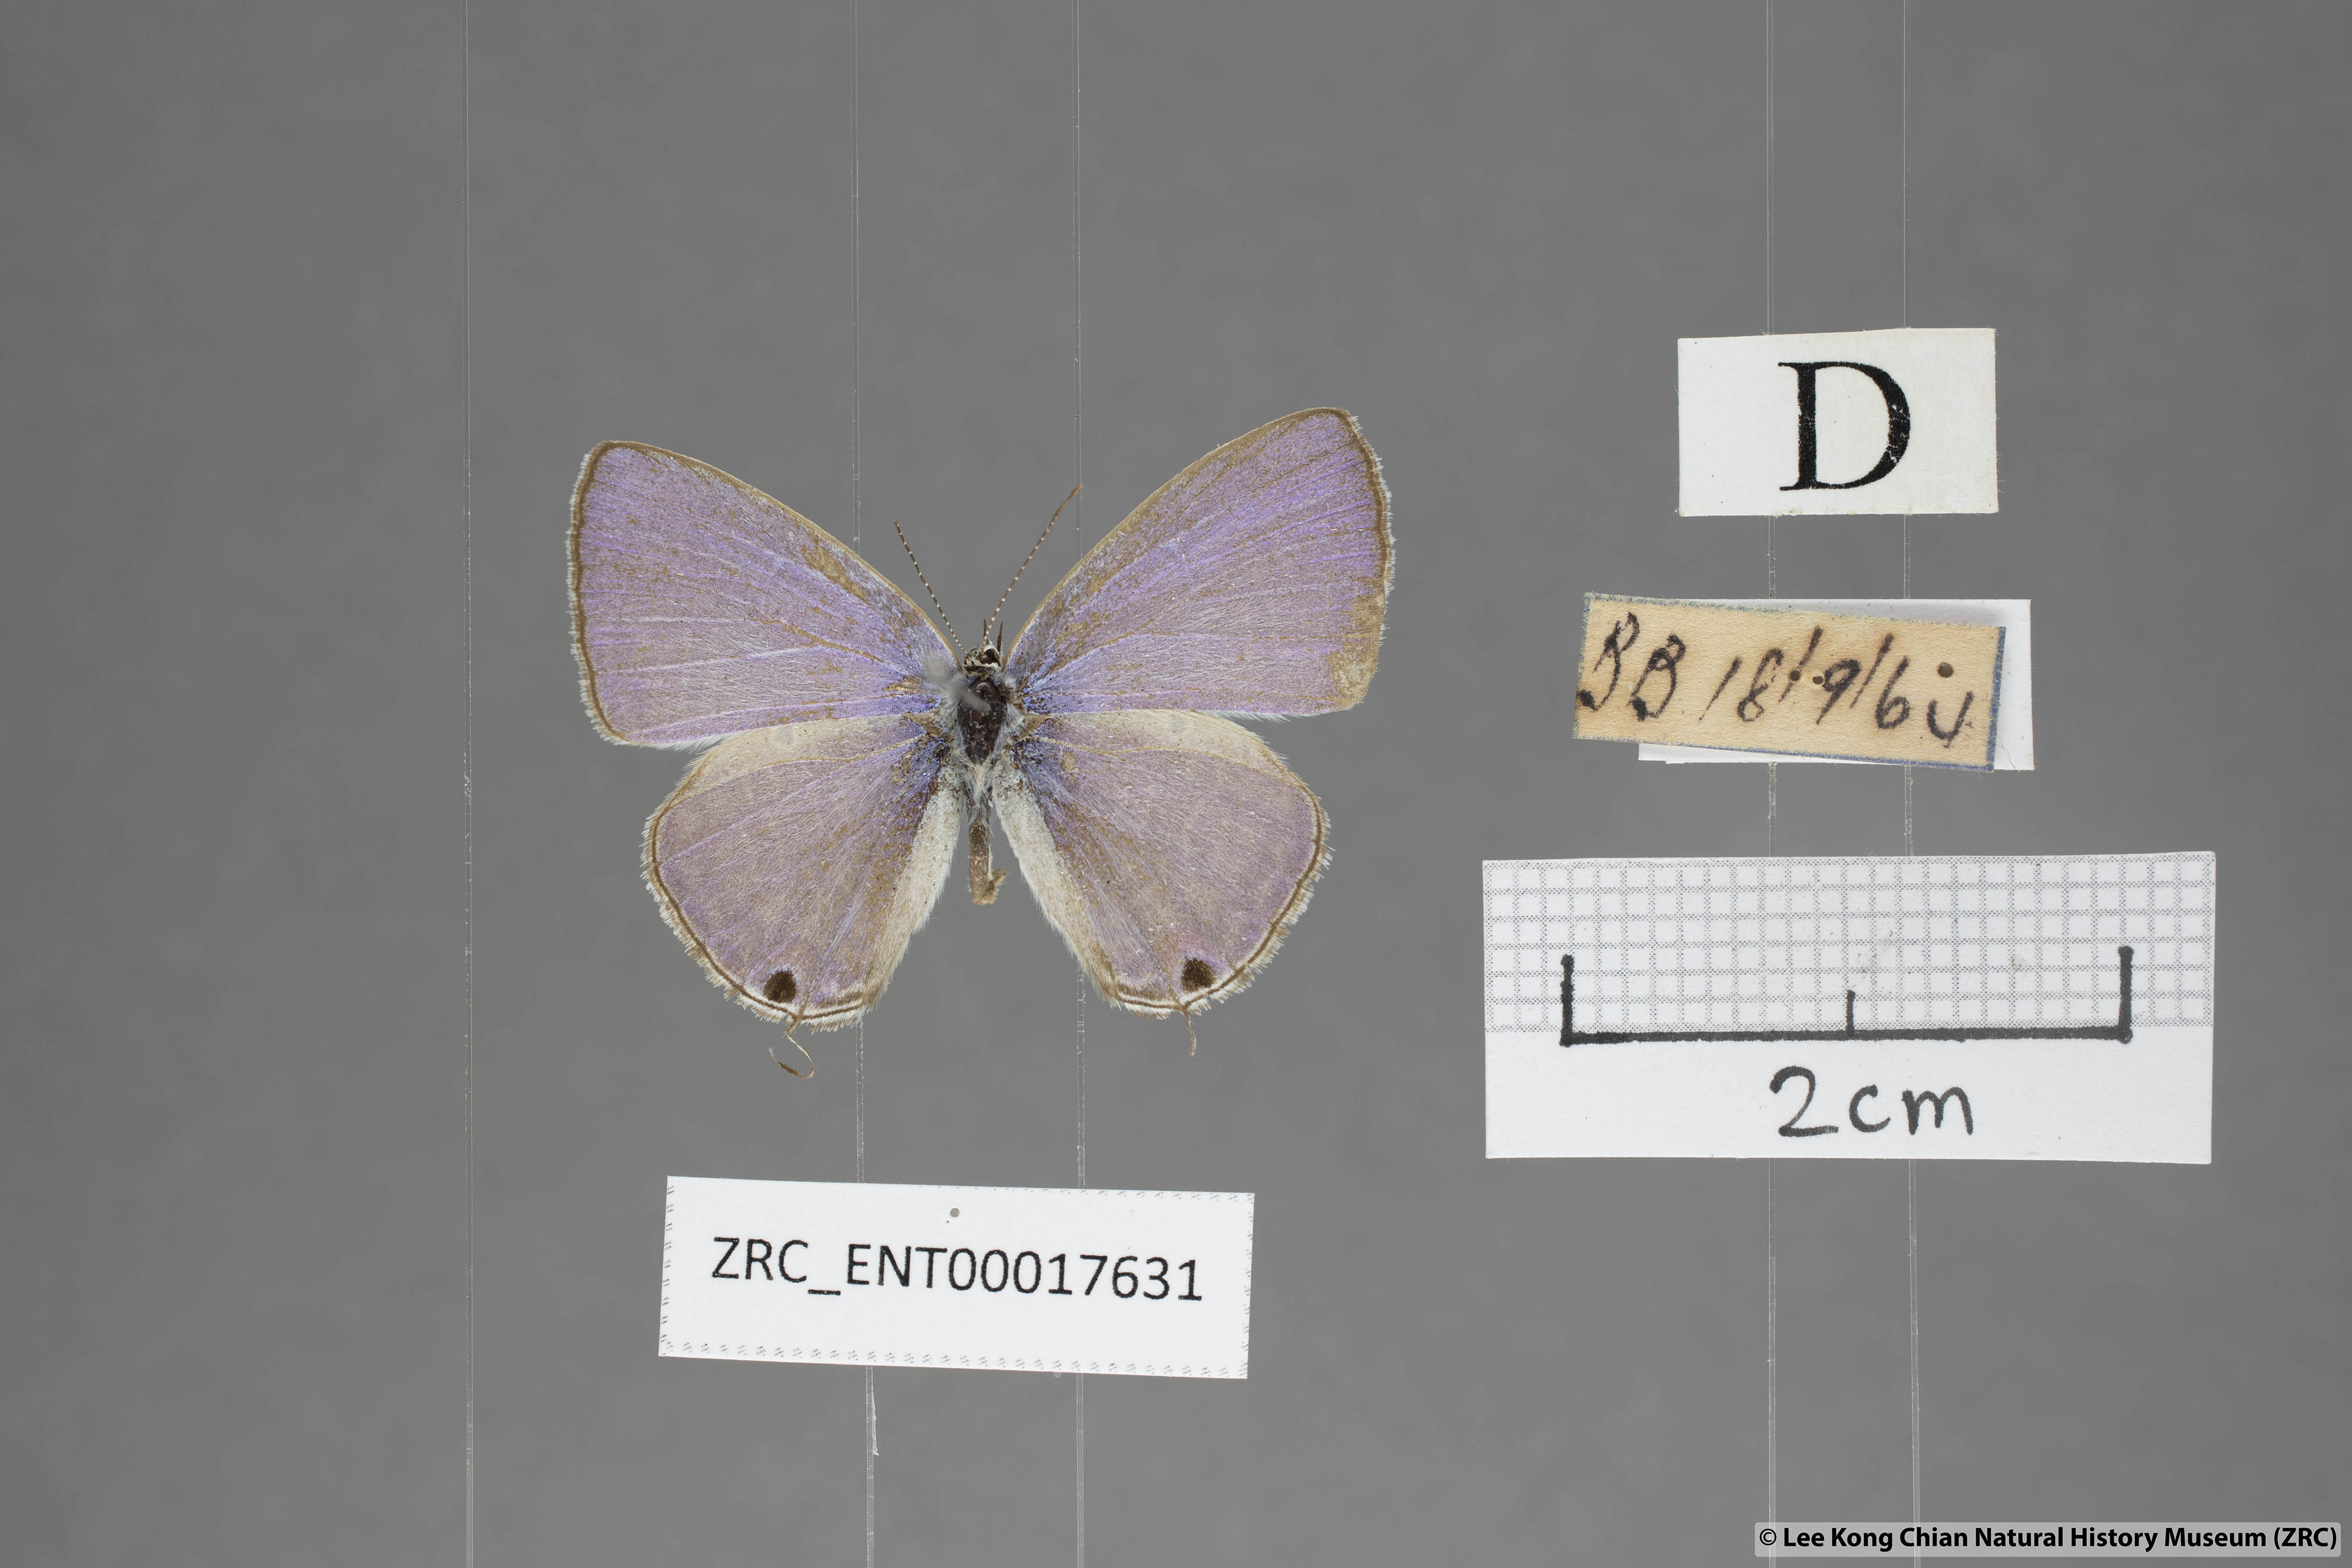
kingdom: Animalia
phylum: Arthropoda
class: Insecta
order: Lepidoptera
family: Lycaenidae
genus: Catochrysops
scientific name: Catochrysops strabo
